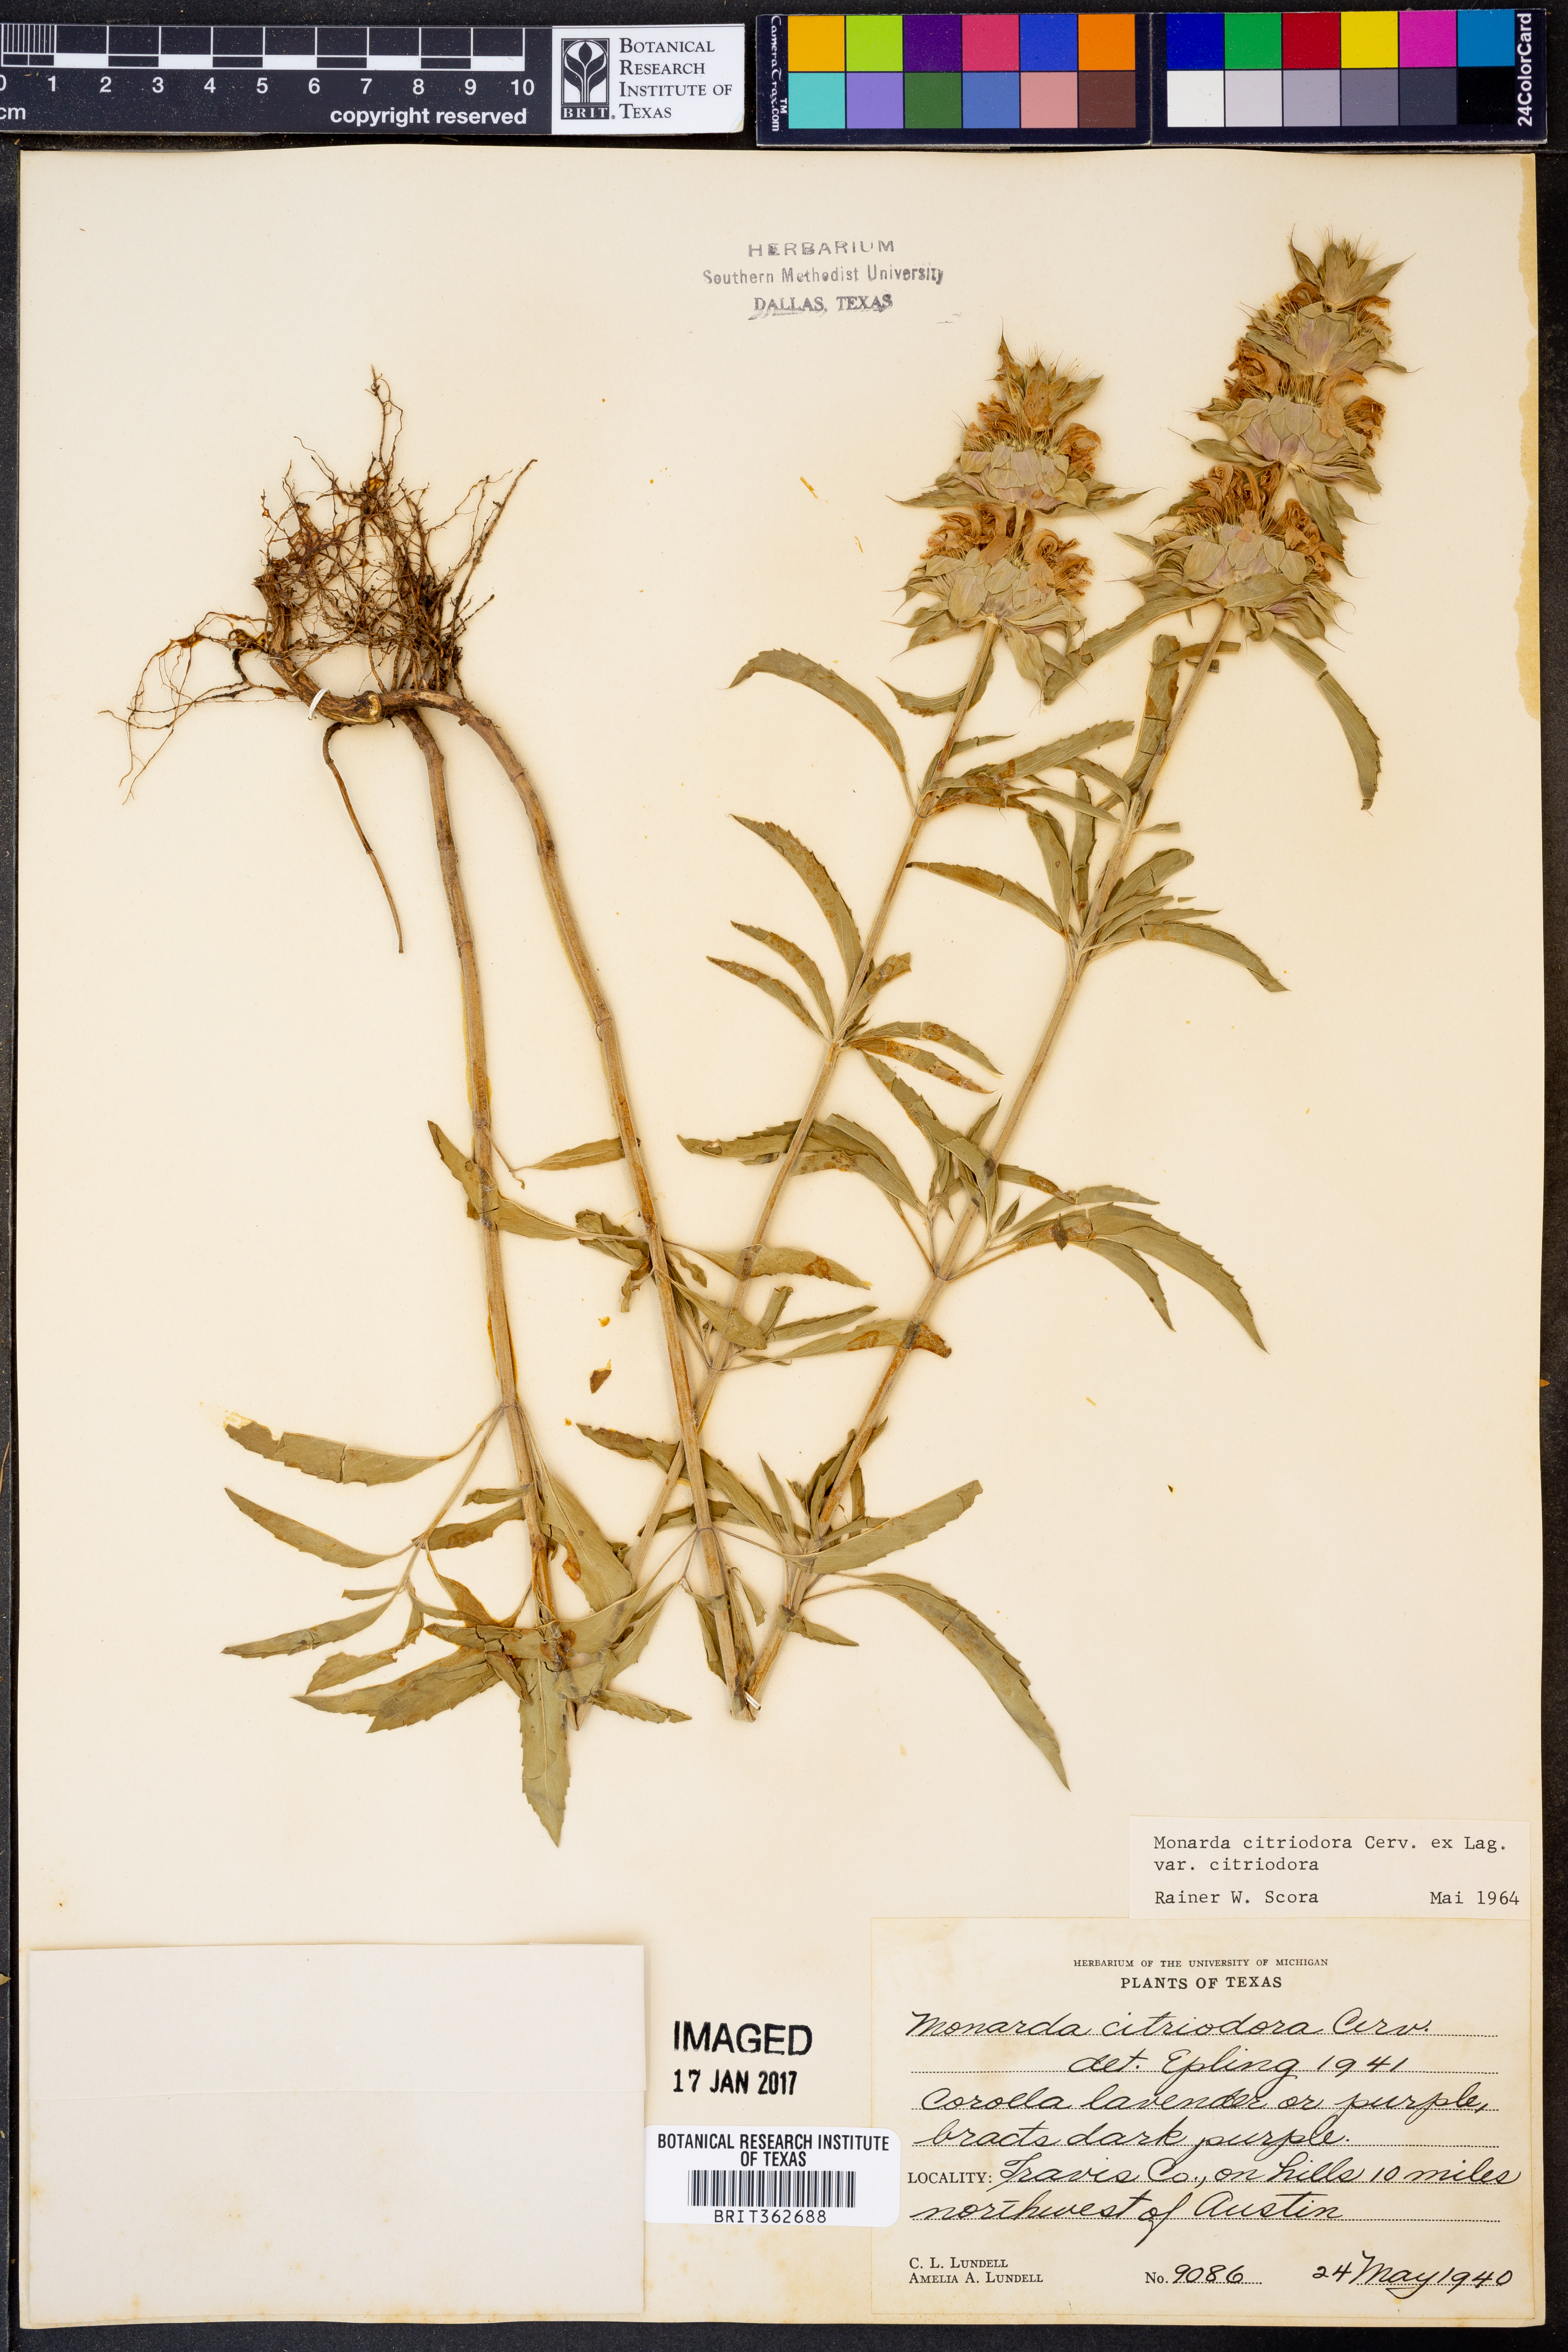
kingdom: Plantae
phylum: Tracheophyta
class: Magnoliopsida
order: Lamiales
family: Lamiaceae
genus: Monarda
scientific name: Monarda citriodora
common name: Lemon beebalm
